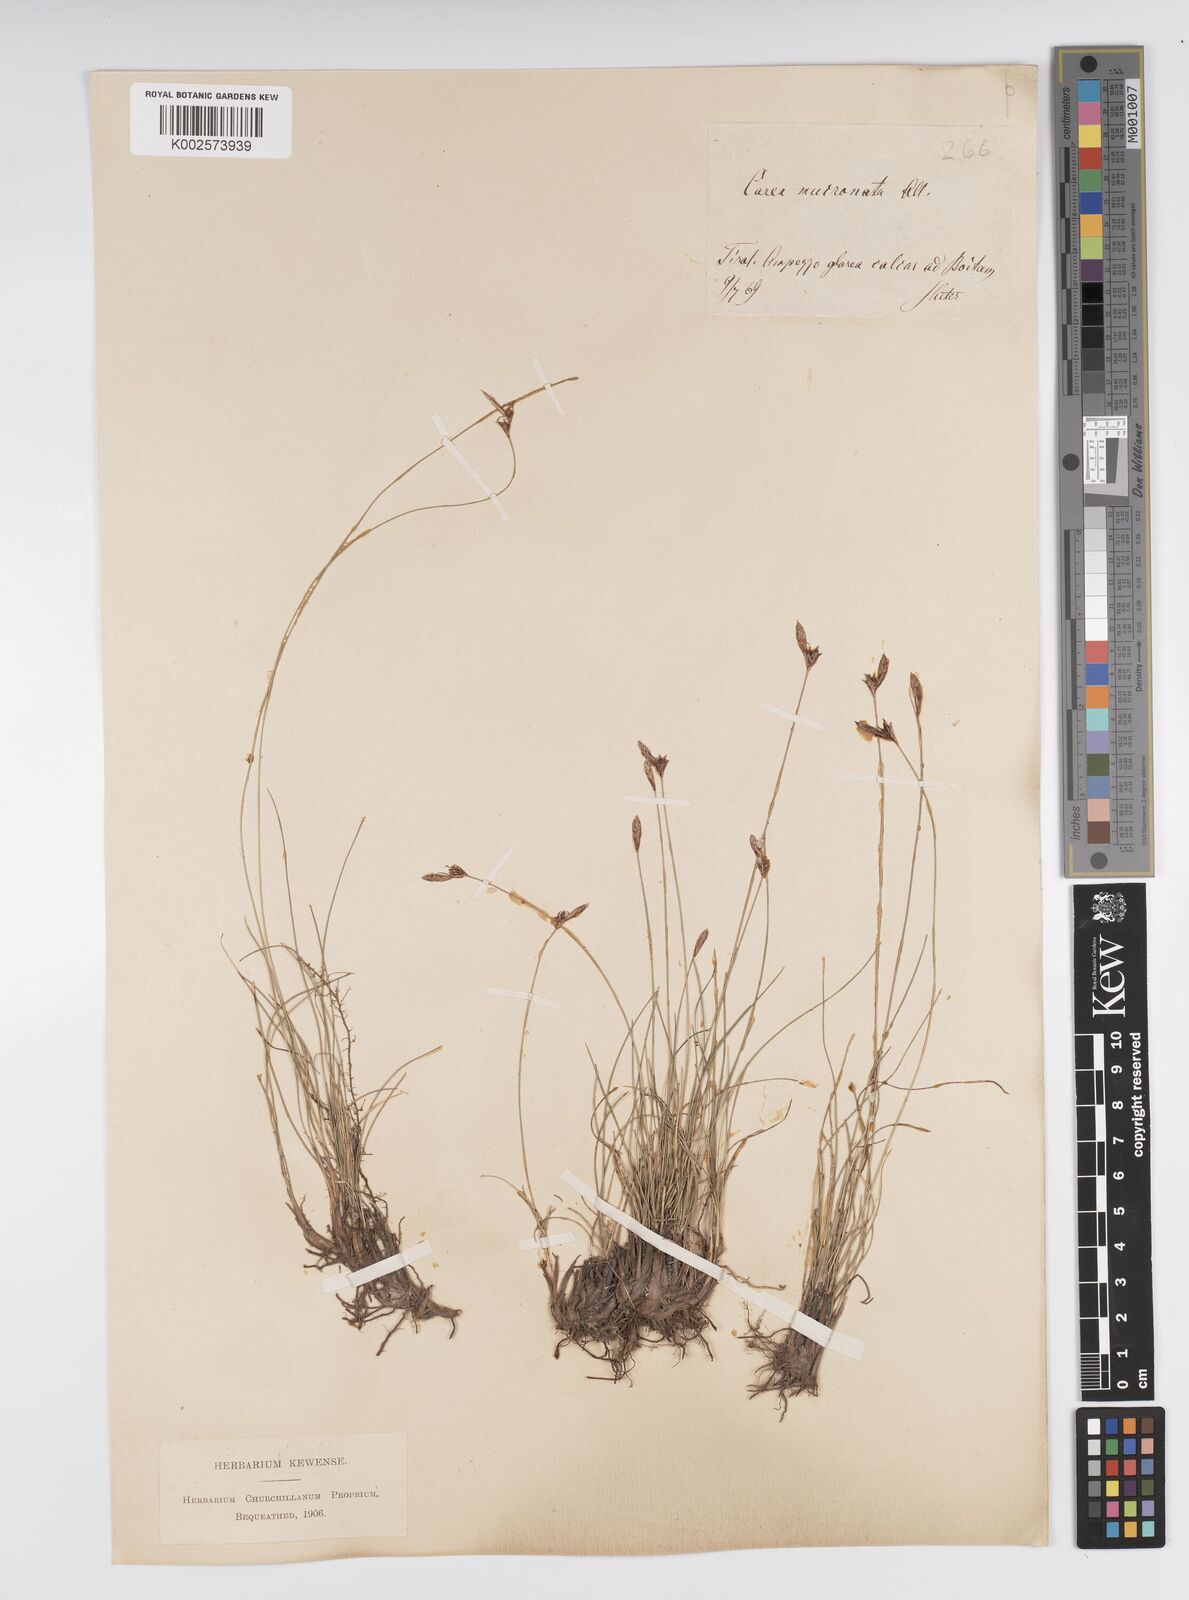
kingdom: Plantae
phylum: Tracheophyta
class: Liliopsida
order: Poales
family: Cyperaceae
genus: Carex
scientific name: Carex mucronata
